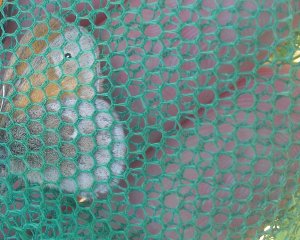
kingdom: Animalia
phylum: Arthropoda
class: Insecta
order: Lepidoptera
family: Nymphalidae
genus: Coenonympha
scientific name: Coenonympha tullia
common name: Large Heath
